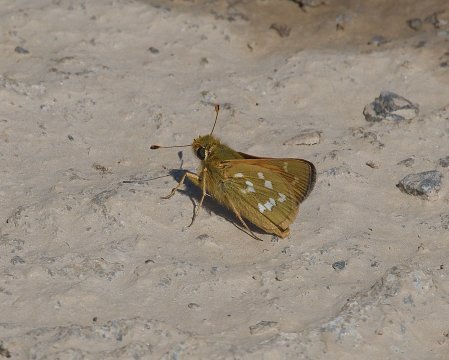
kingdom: Animalia
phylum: Arthropoda
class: Insecta
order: Lepidoptera
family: Hesperiidae
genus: Hesperia
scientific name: Hesperia comma
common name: Common Branded Skipper
